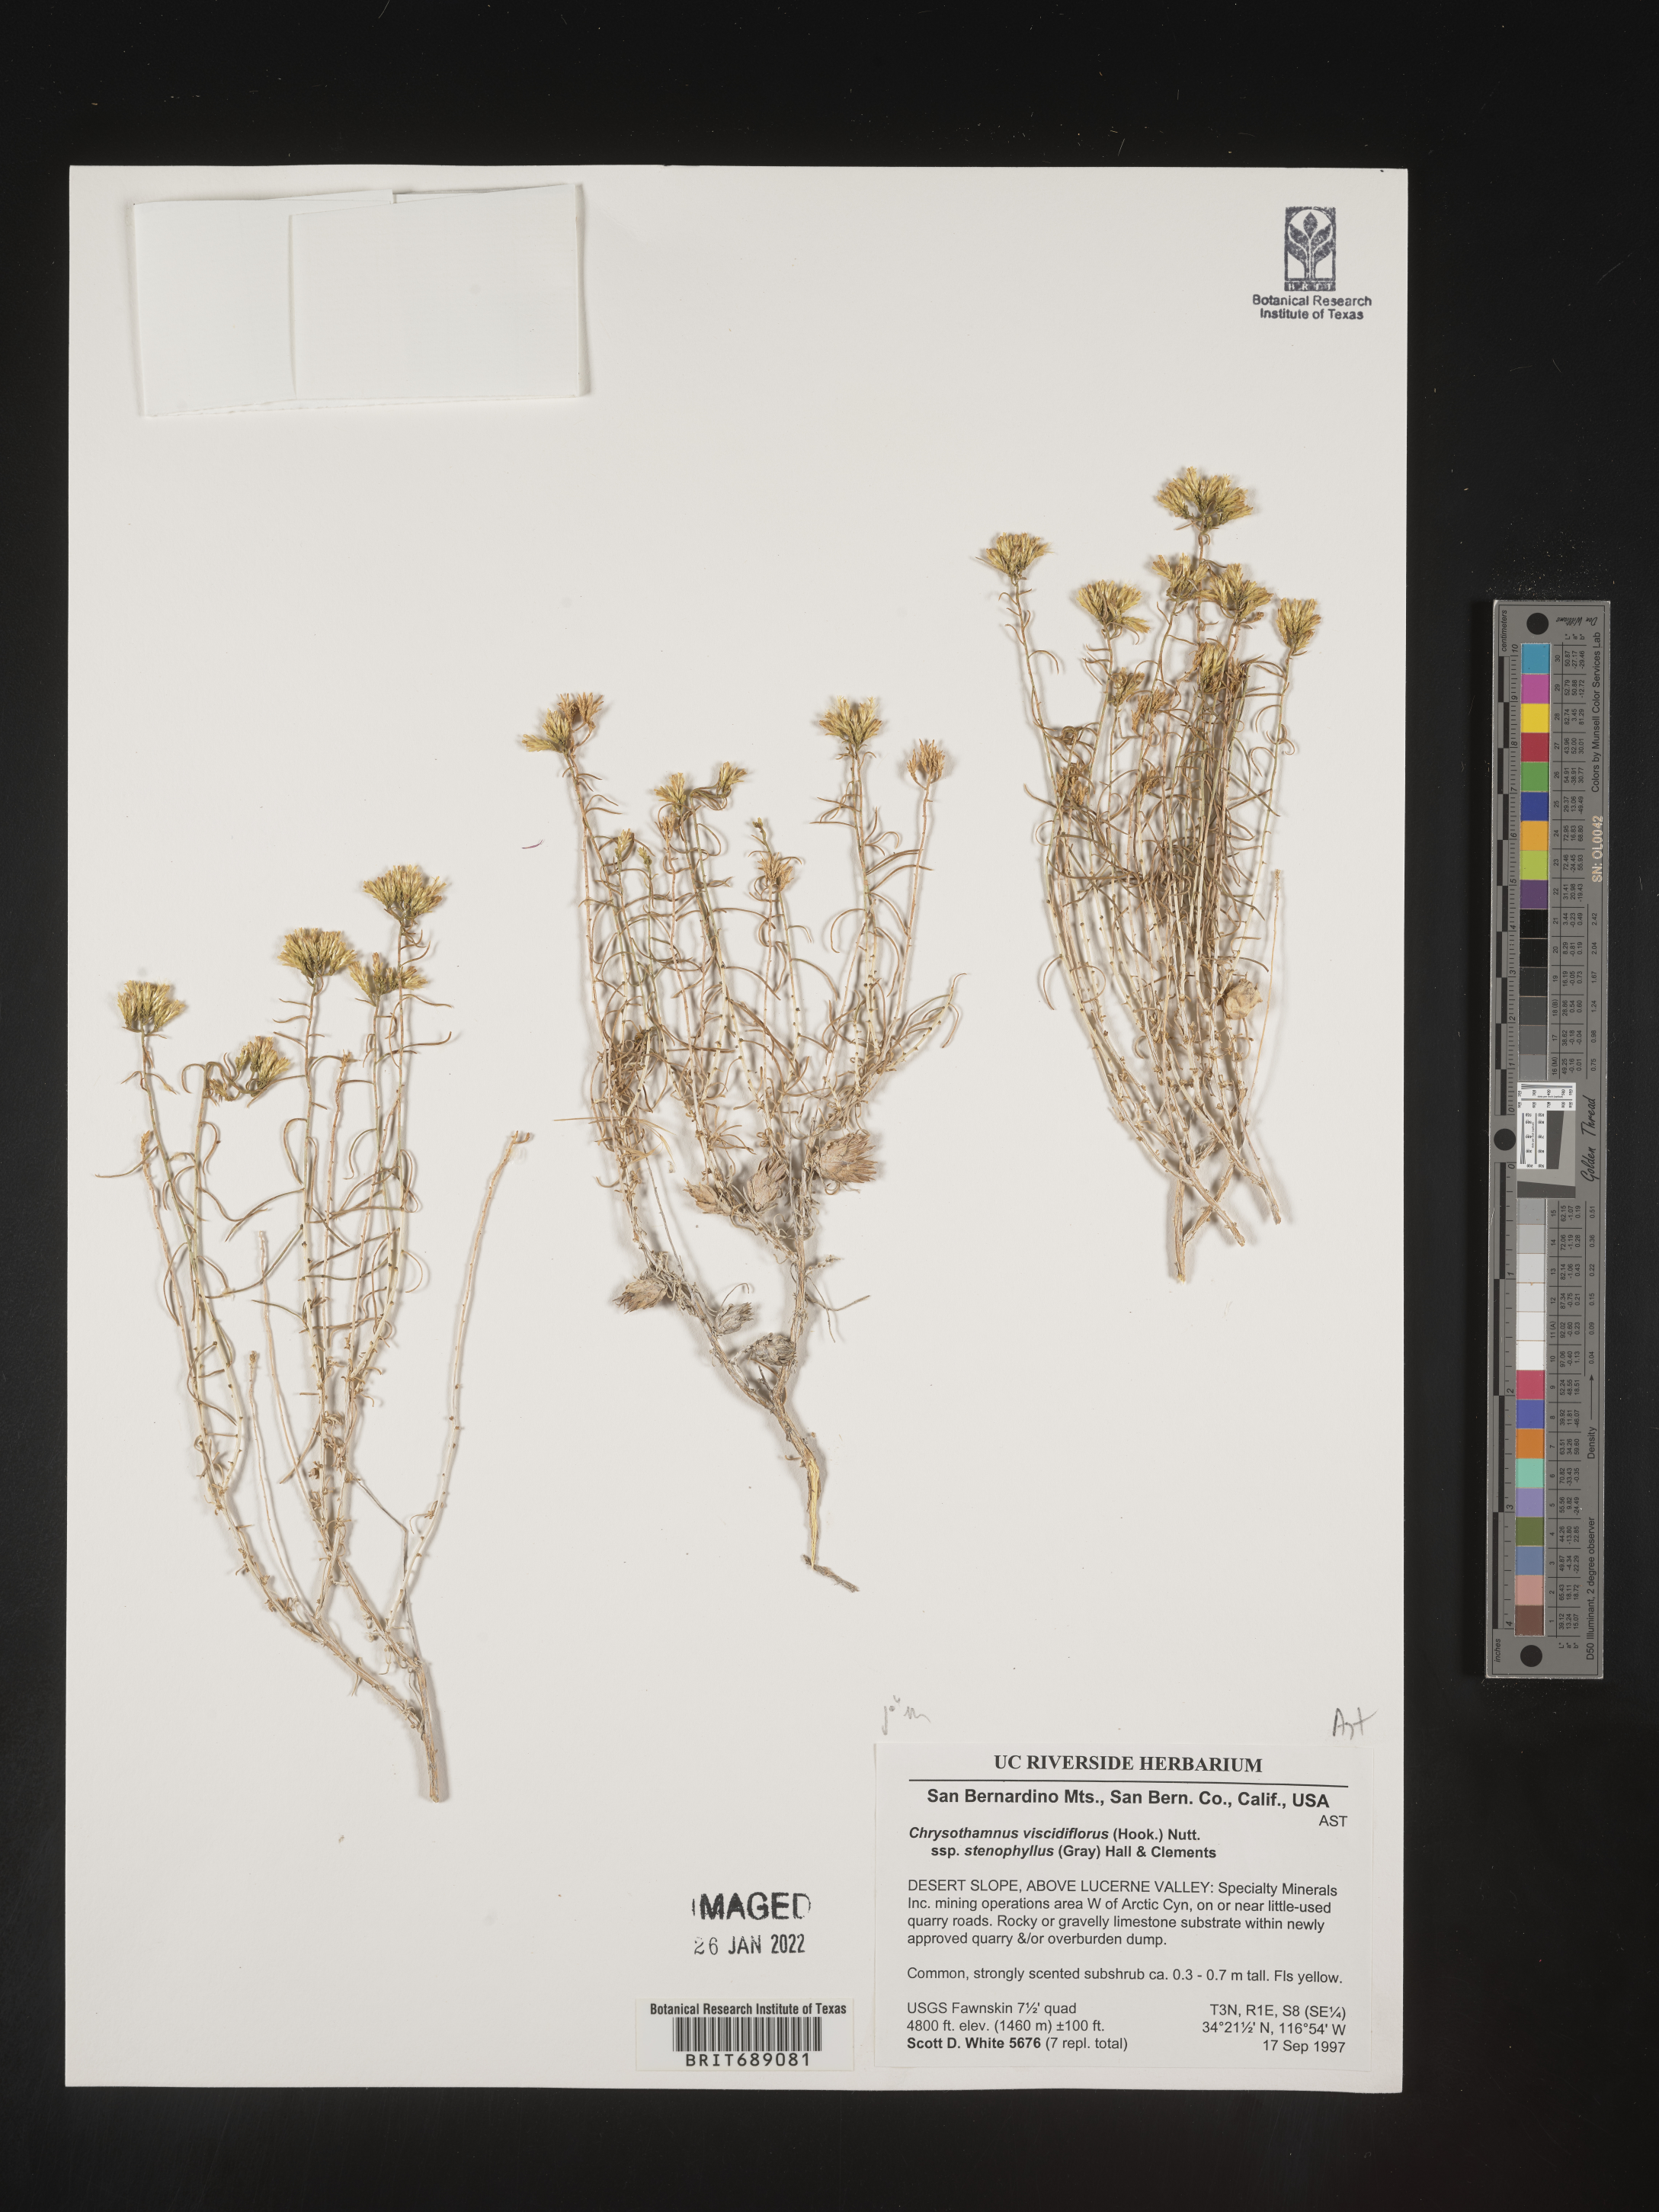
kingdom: Plantae
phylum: Tracheophyta
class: Magnoliopsida
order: Asterales
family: Asteraceae
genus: Chrysothamnus
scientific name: Chrysothamnus viscidiflorus
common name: Yellow rabbitbrush
